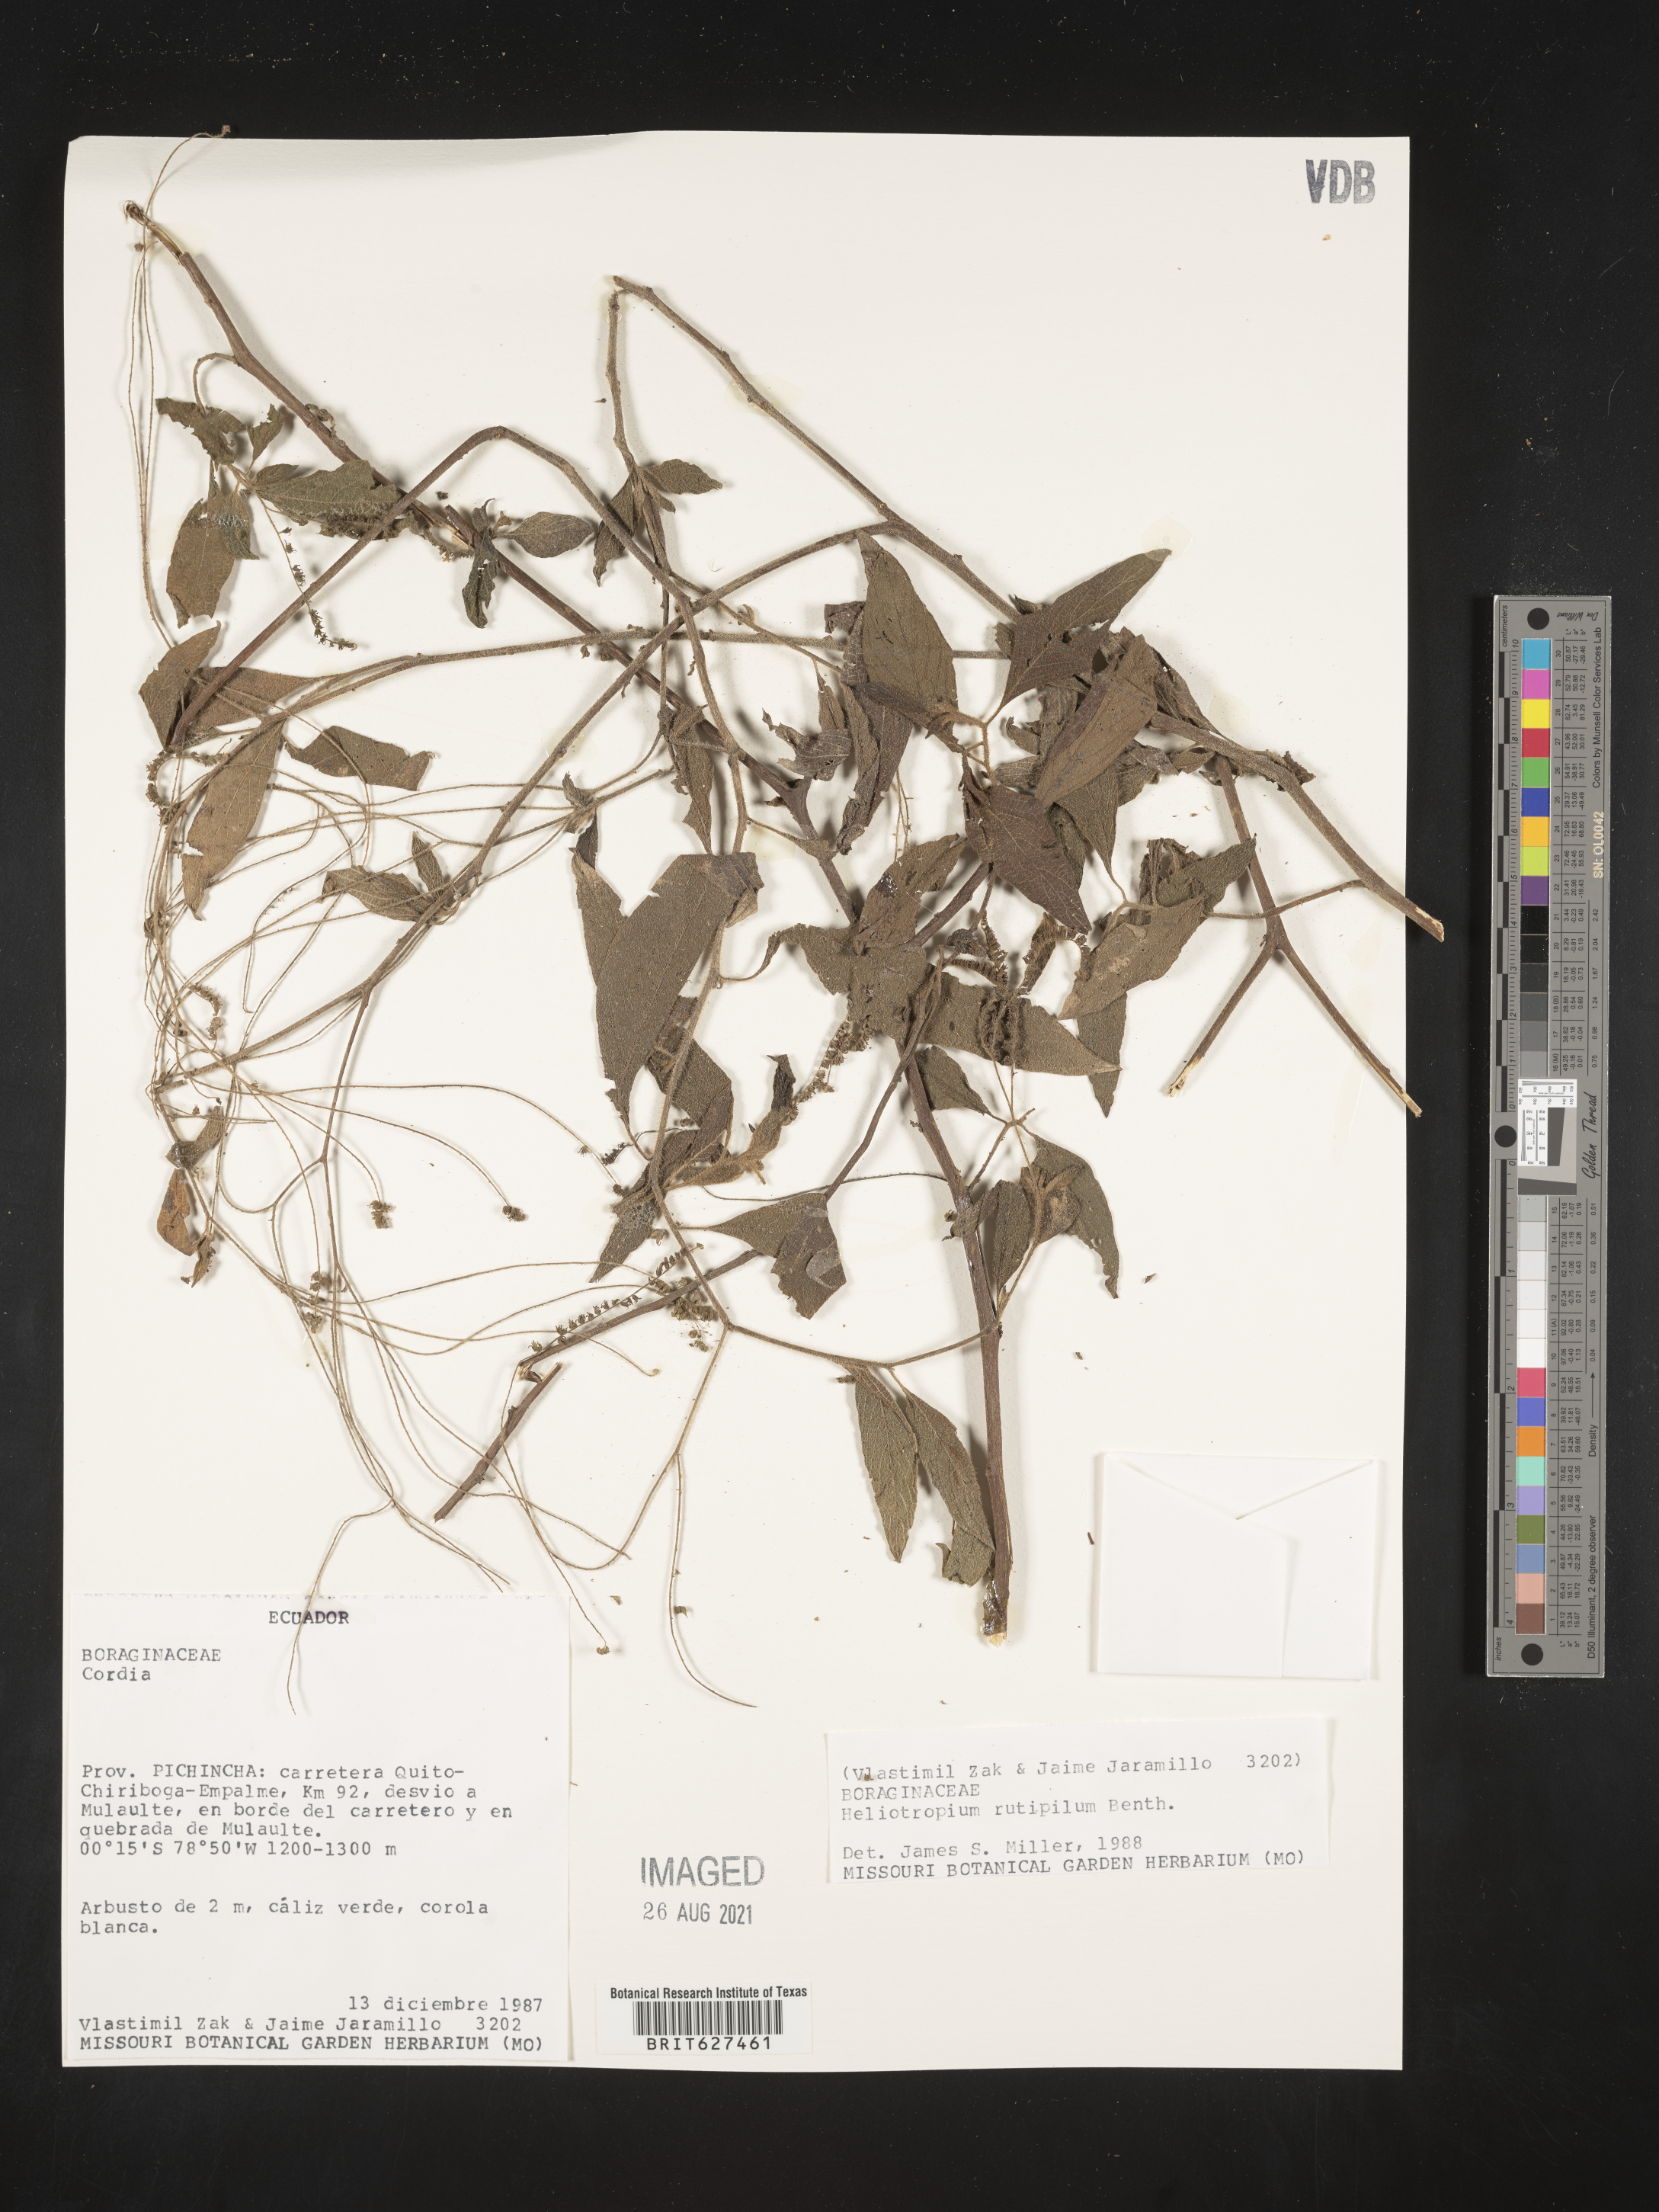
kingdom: Plantae
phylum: Tracheophyta
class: Magnoliopsida
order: Boraginales
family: Heliotropiaceae
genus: Heliotropium
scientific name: Heliotropium rufipilum
